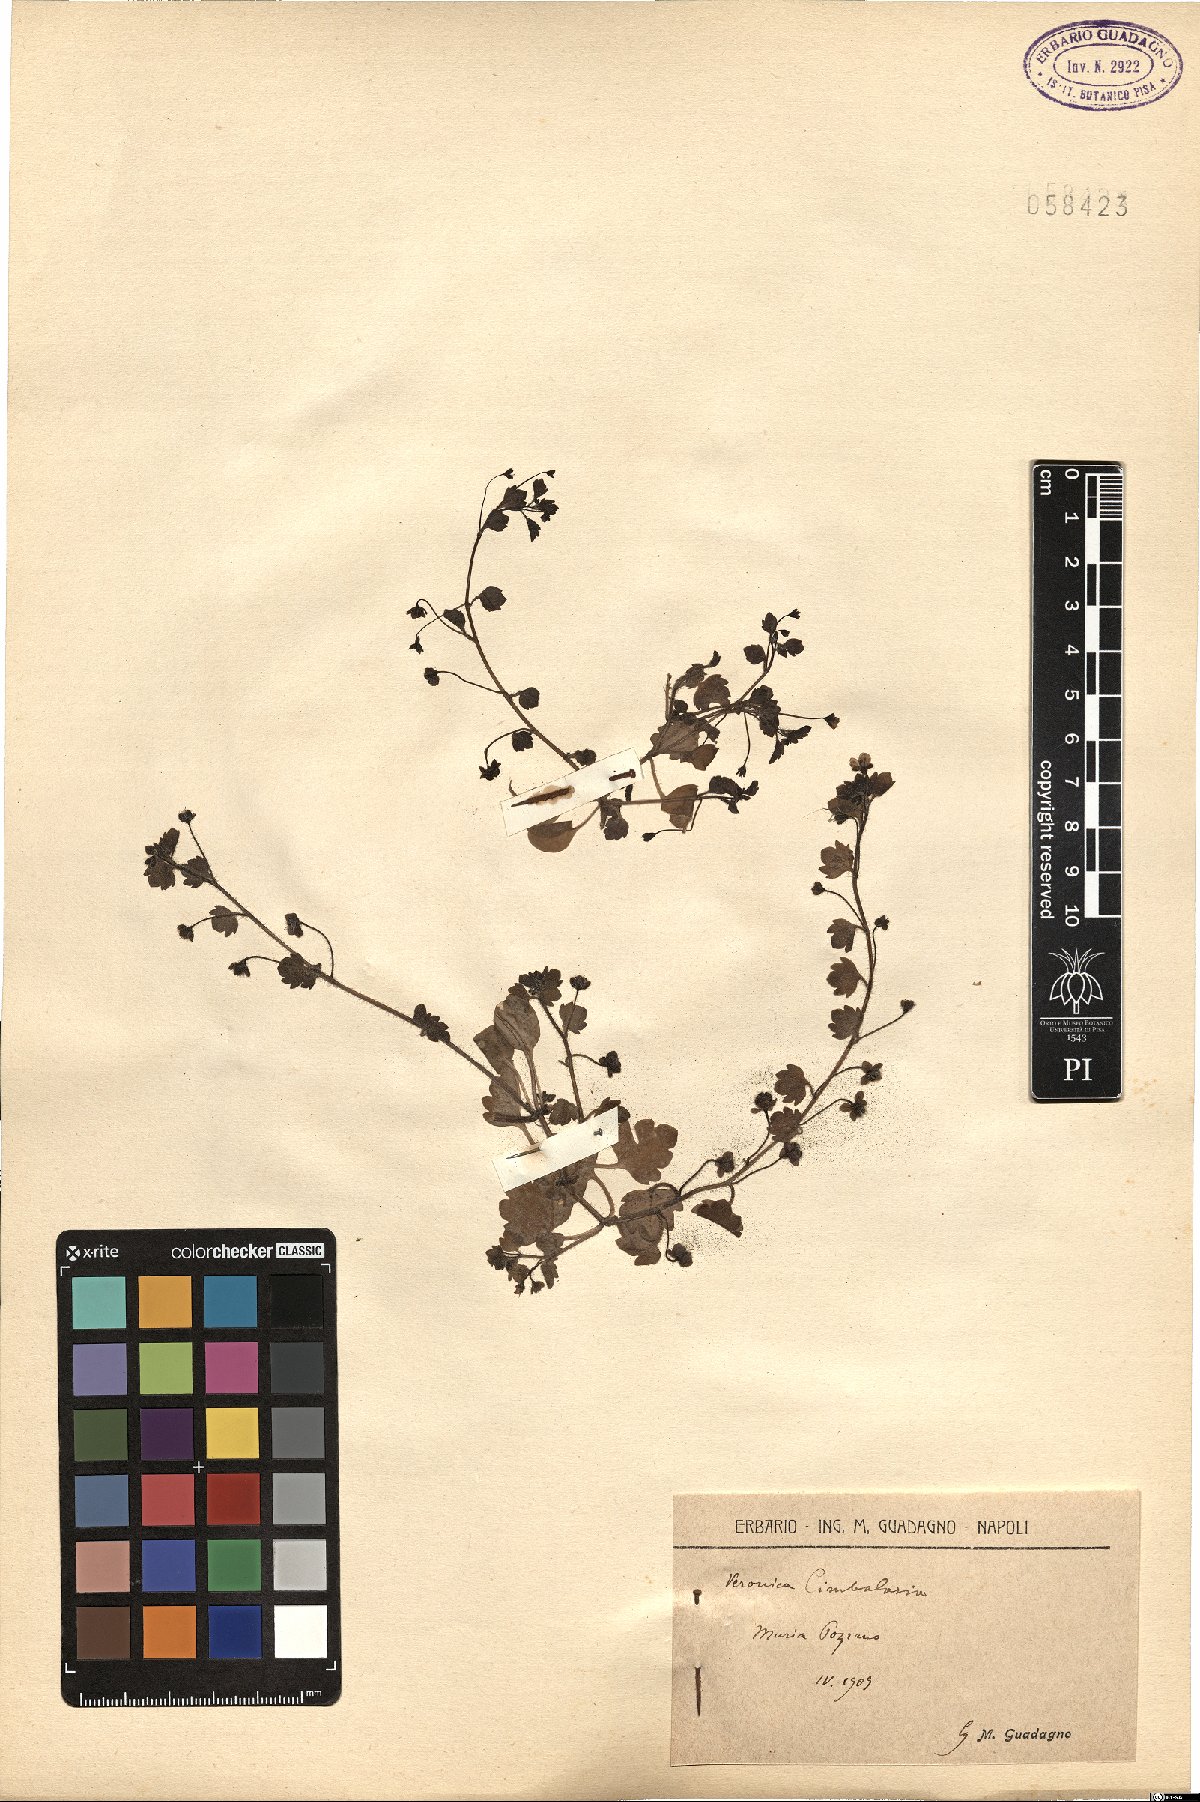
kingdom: Plantae
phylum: Tracheophyta
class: Magnoliopsida
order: Lamiales
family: Plantaginaceae
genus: Veronica
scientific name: Veronica cymbalaria
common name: Pale speedwell
